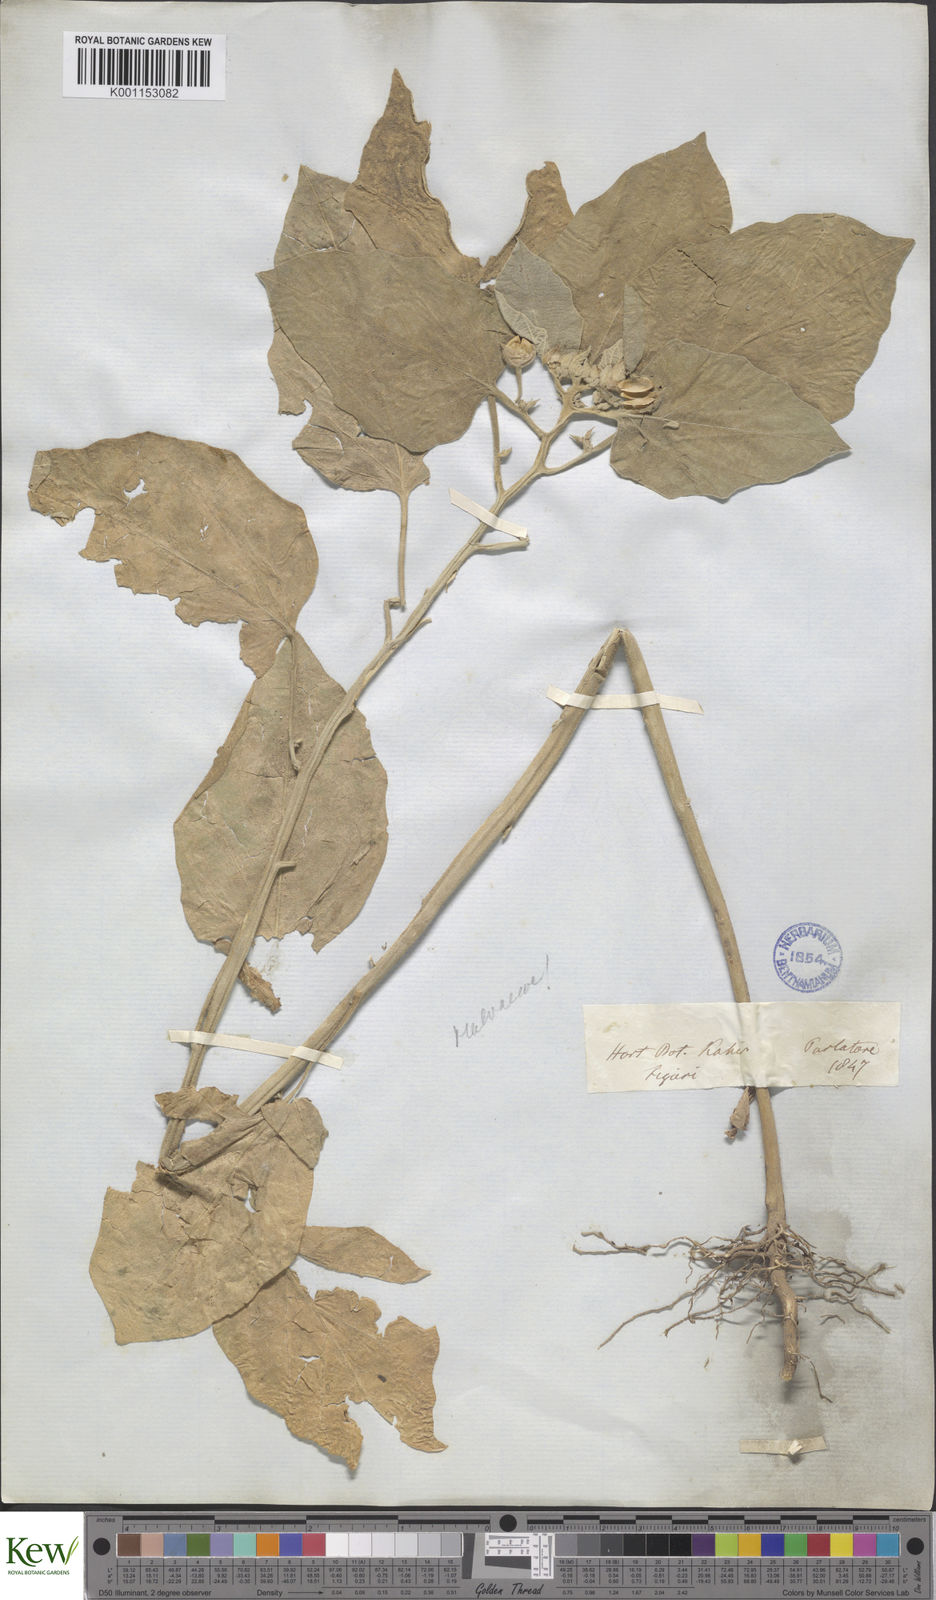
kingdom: Plantae
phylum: Tracheophyta
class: Magnoliopsida
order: Solanales
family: Solanaceae
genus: Solanum
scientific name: Solanum insanum
